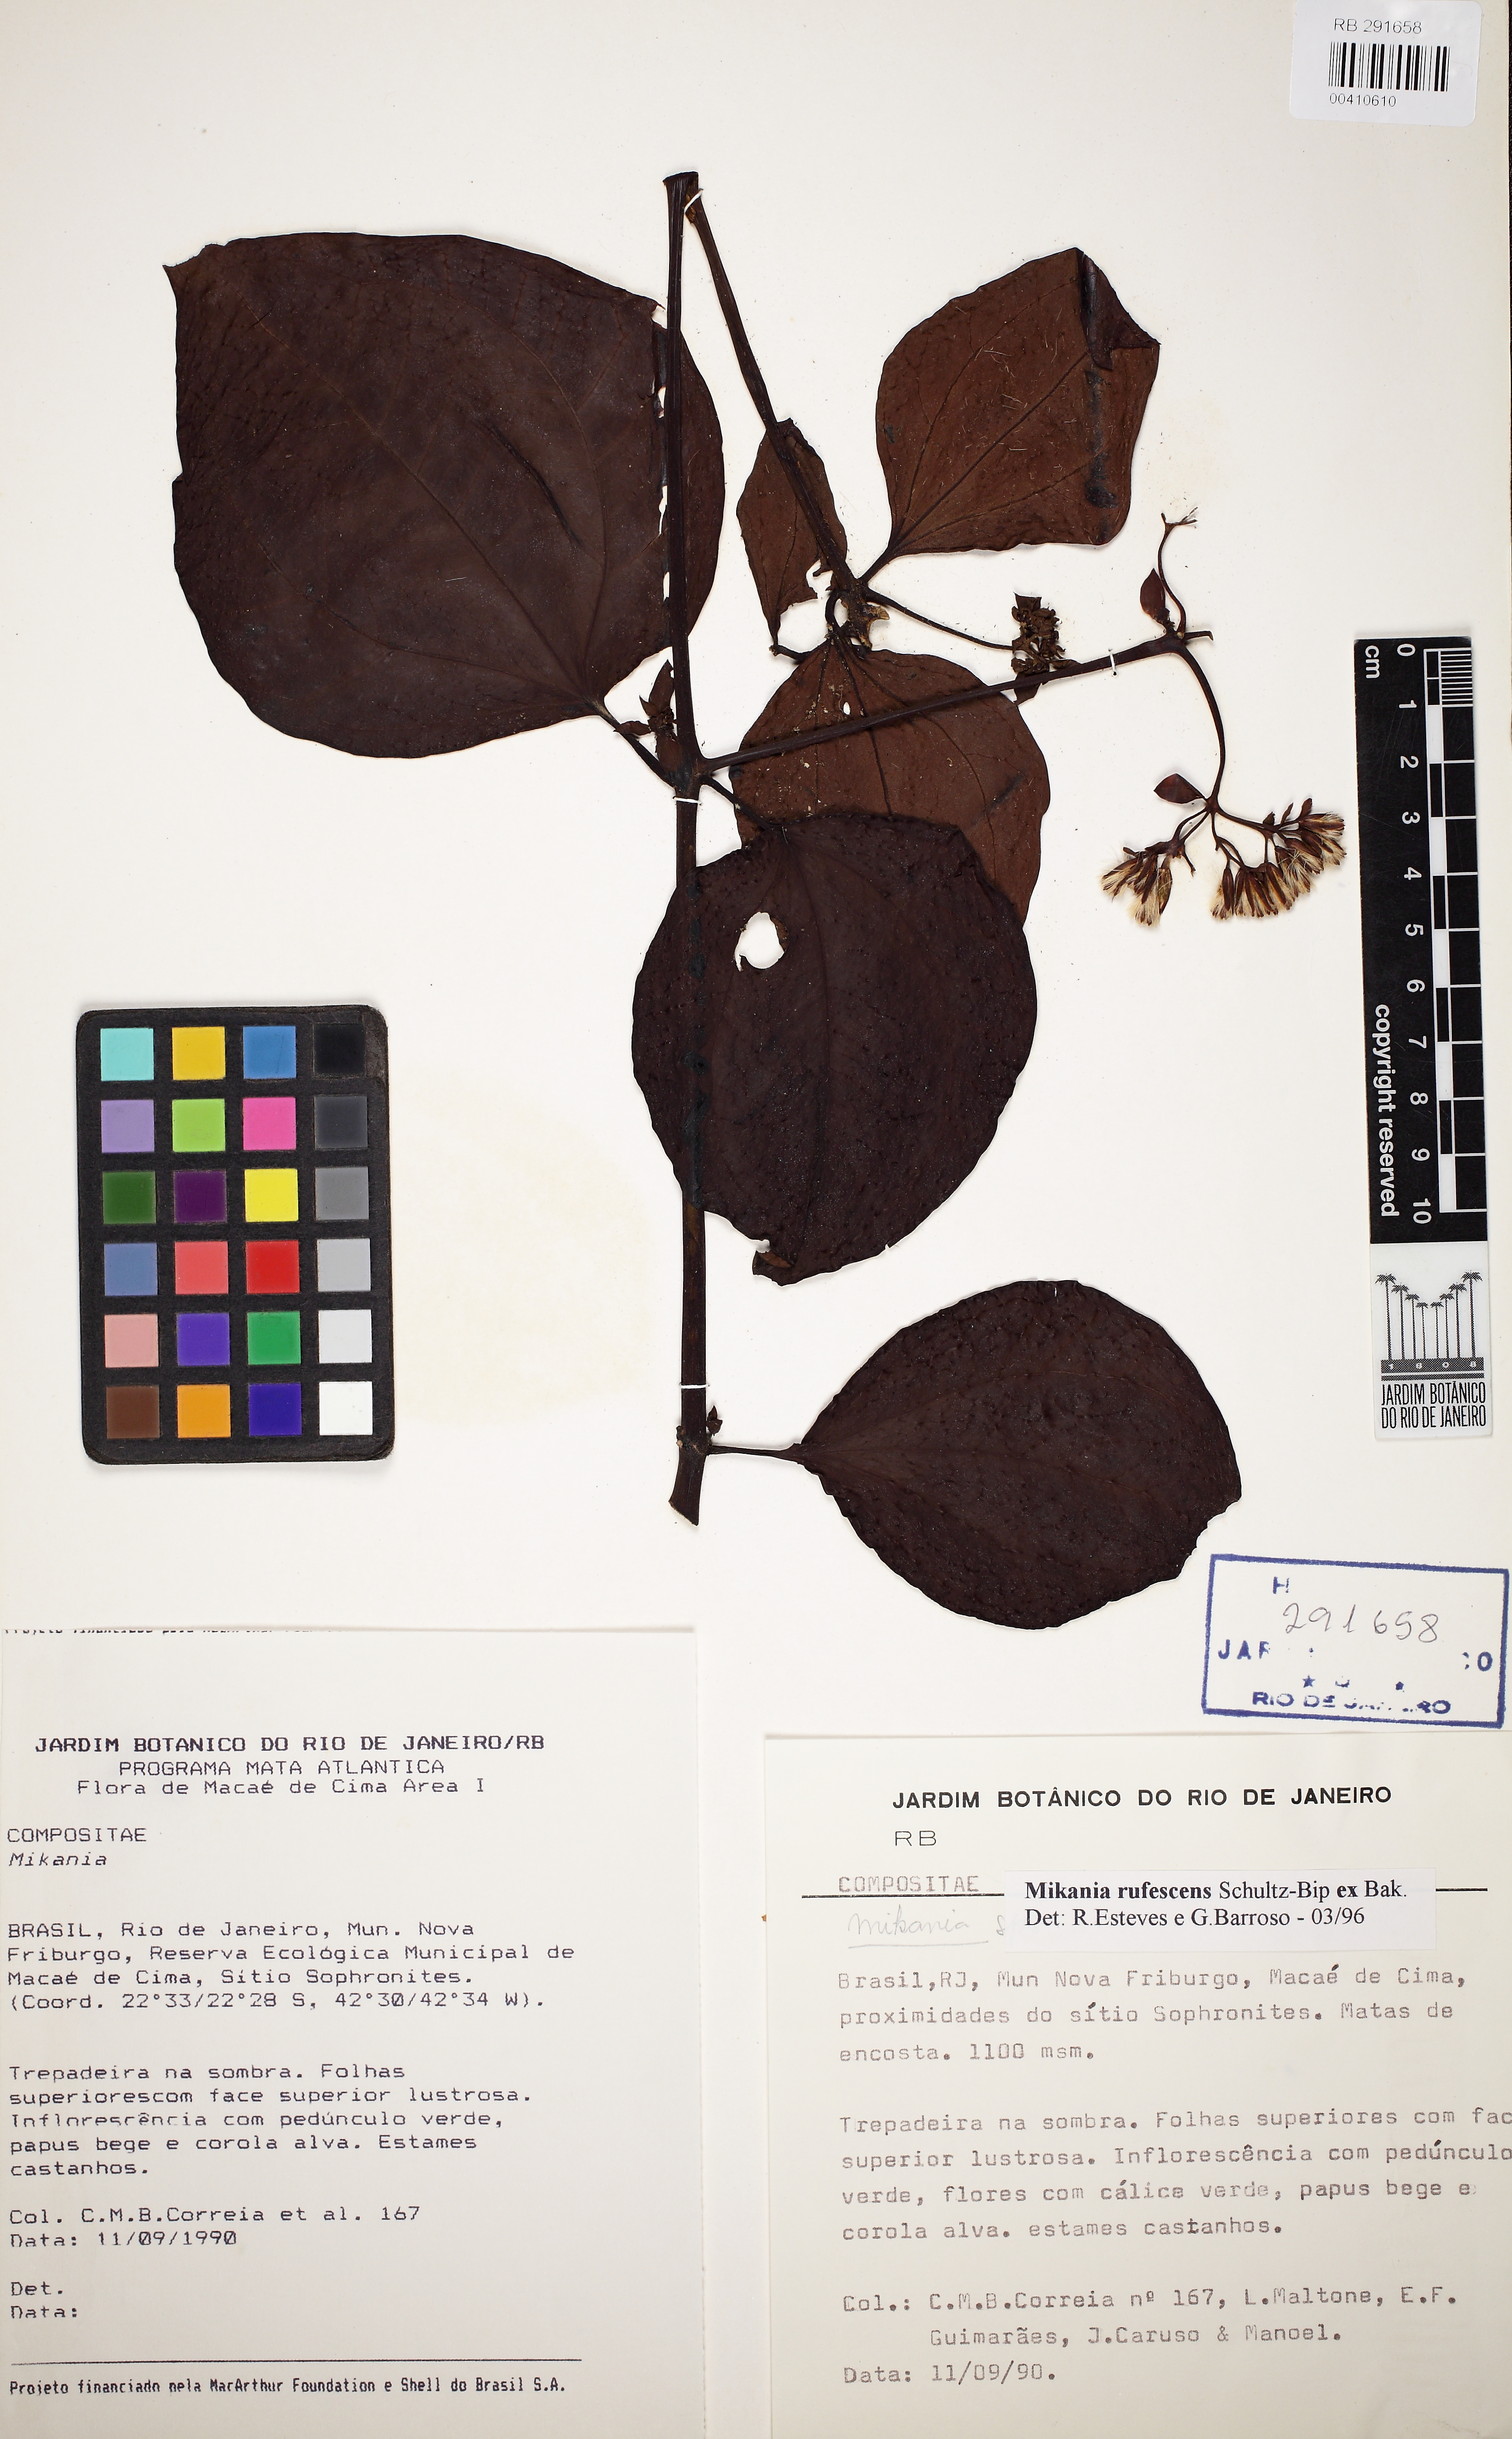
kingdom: Plantae
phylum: Tracheophyta
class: Magnoliopsida
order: Asterales
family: Asteraceae
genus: Mikania
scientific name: Mikania rufescens
